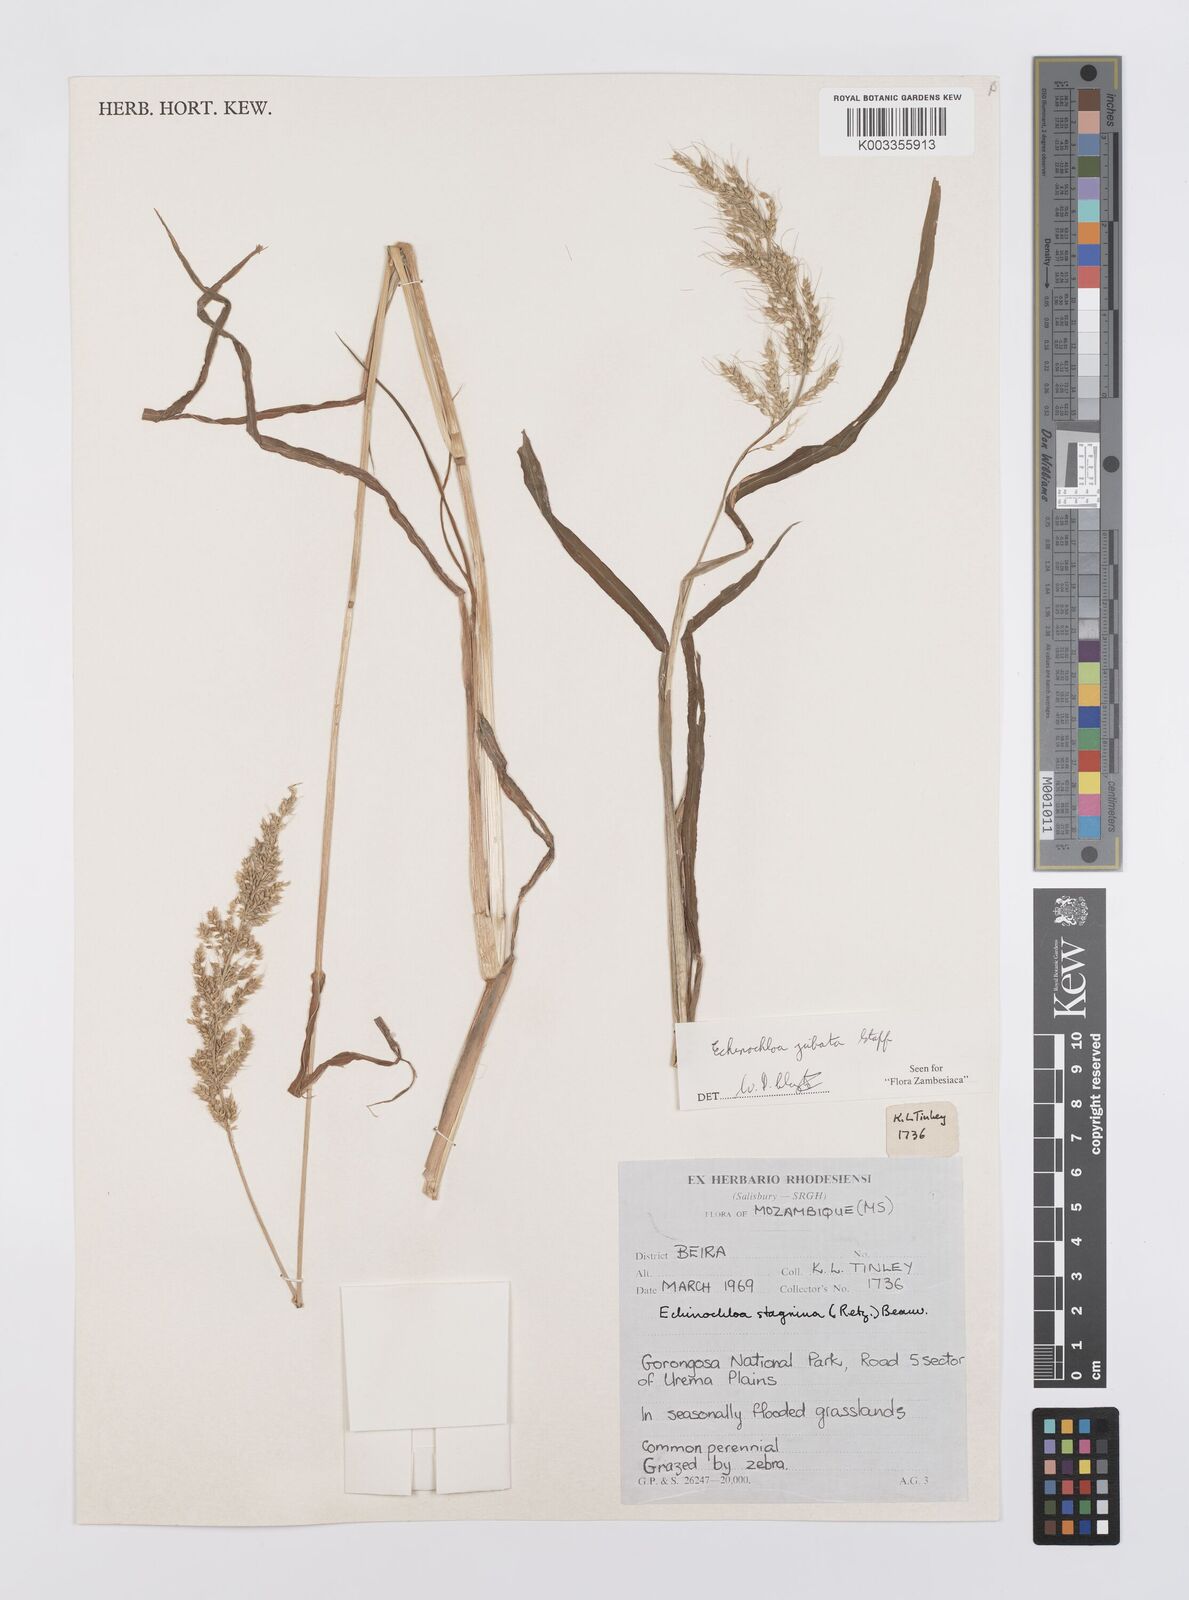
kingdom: Plantae
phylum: Tracheophyta
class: Liliopsida
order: Poales
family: Poaceae
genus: Echinochloa
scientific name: Echinochloa jubata
